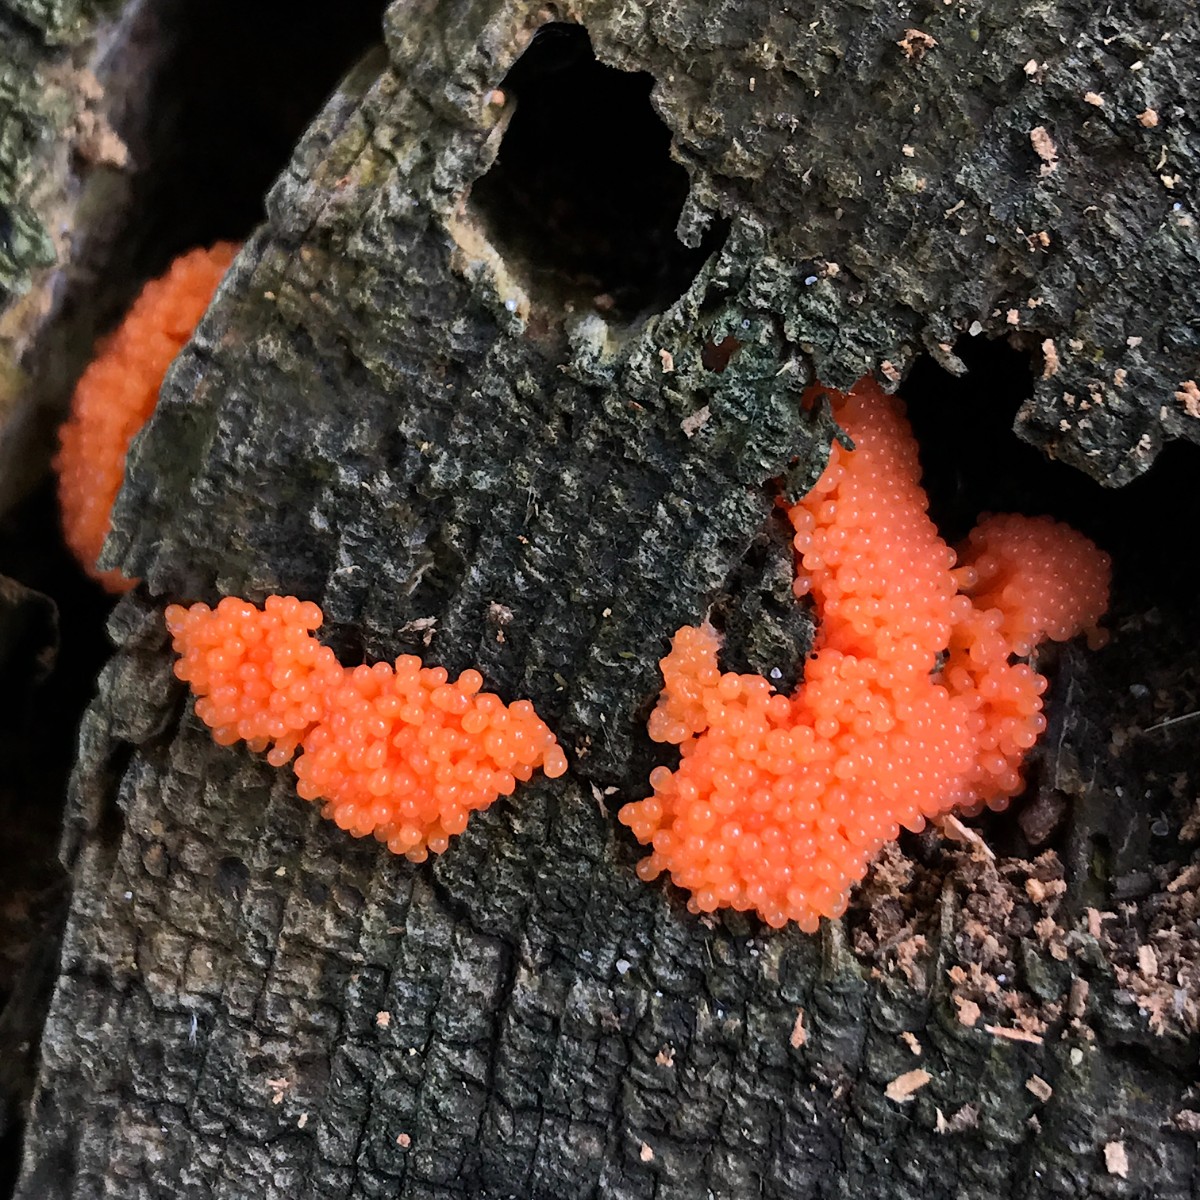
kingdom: Protozoa
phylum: Mycetozoa
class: Myxomycetes
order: Cribrariales
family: Tubiferaceae
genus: Tubifera
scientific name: Tubifera ferruginosa
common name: kanel-støvrør
